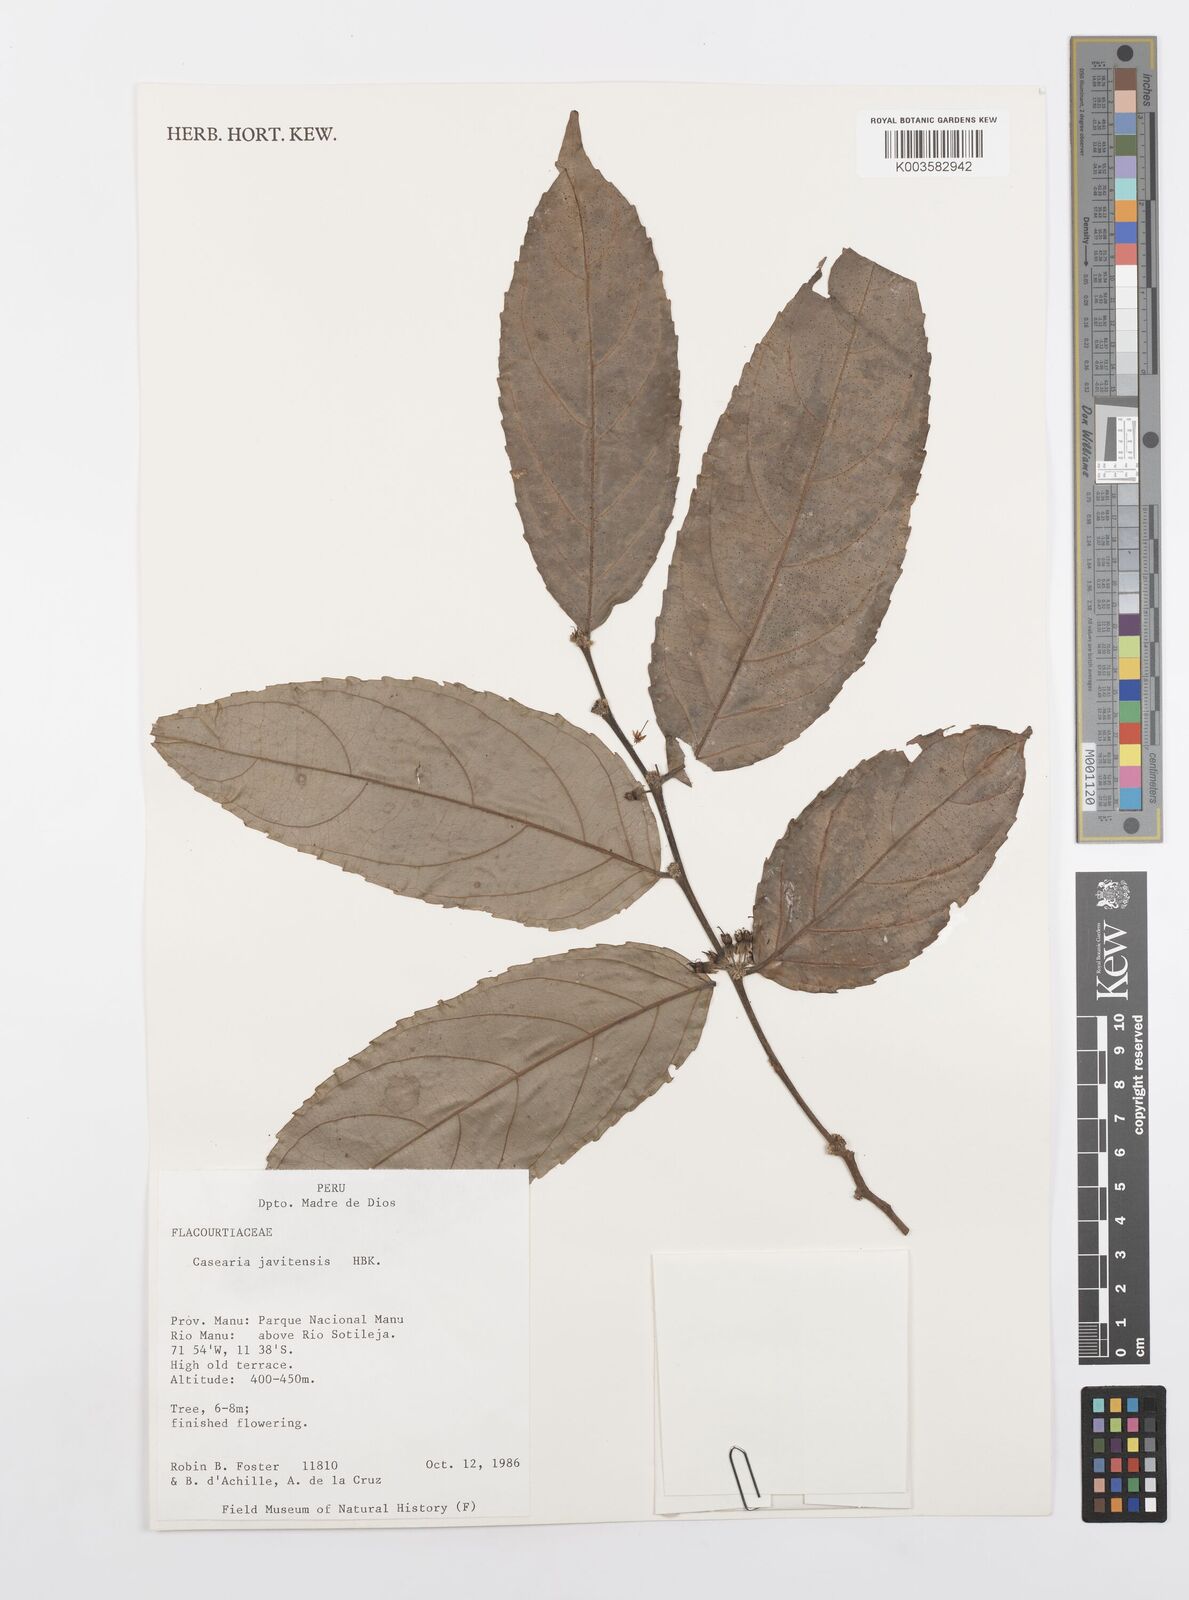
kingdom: Plantae
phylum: Tracheophyta
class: Magnoliopsida
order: Malpighiales
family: Salicaceae
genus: Piparea
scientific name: Piparea multiflora
